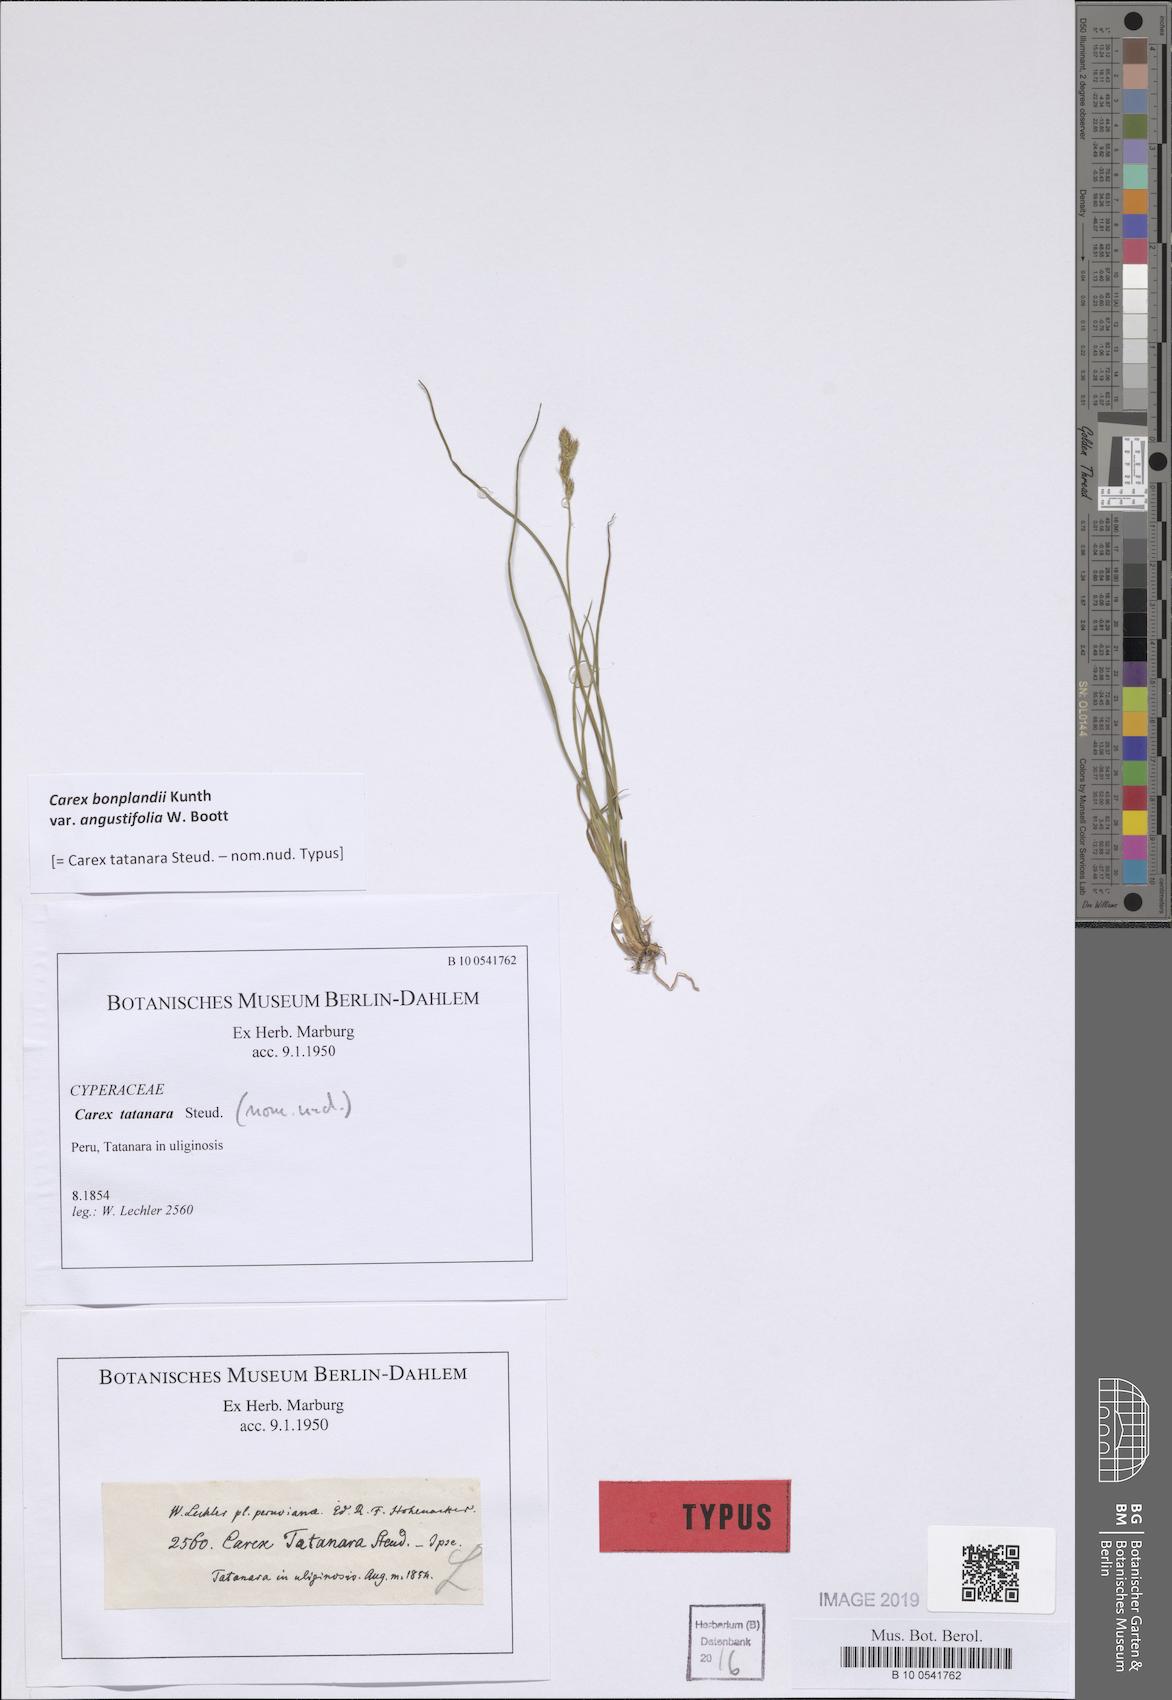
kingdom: Plantae
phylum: Tracheophyta
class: Liliopsida
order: Poales
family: Cyperaceae
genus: Carex
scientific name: Carex
